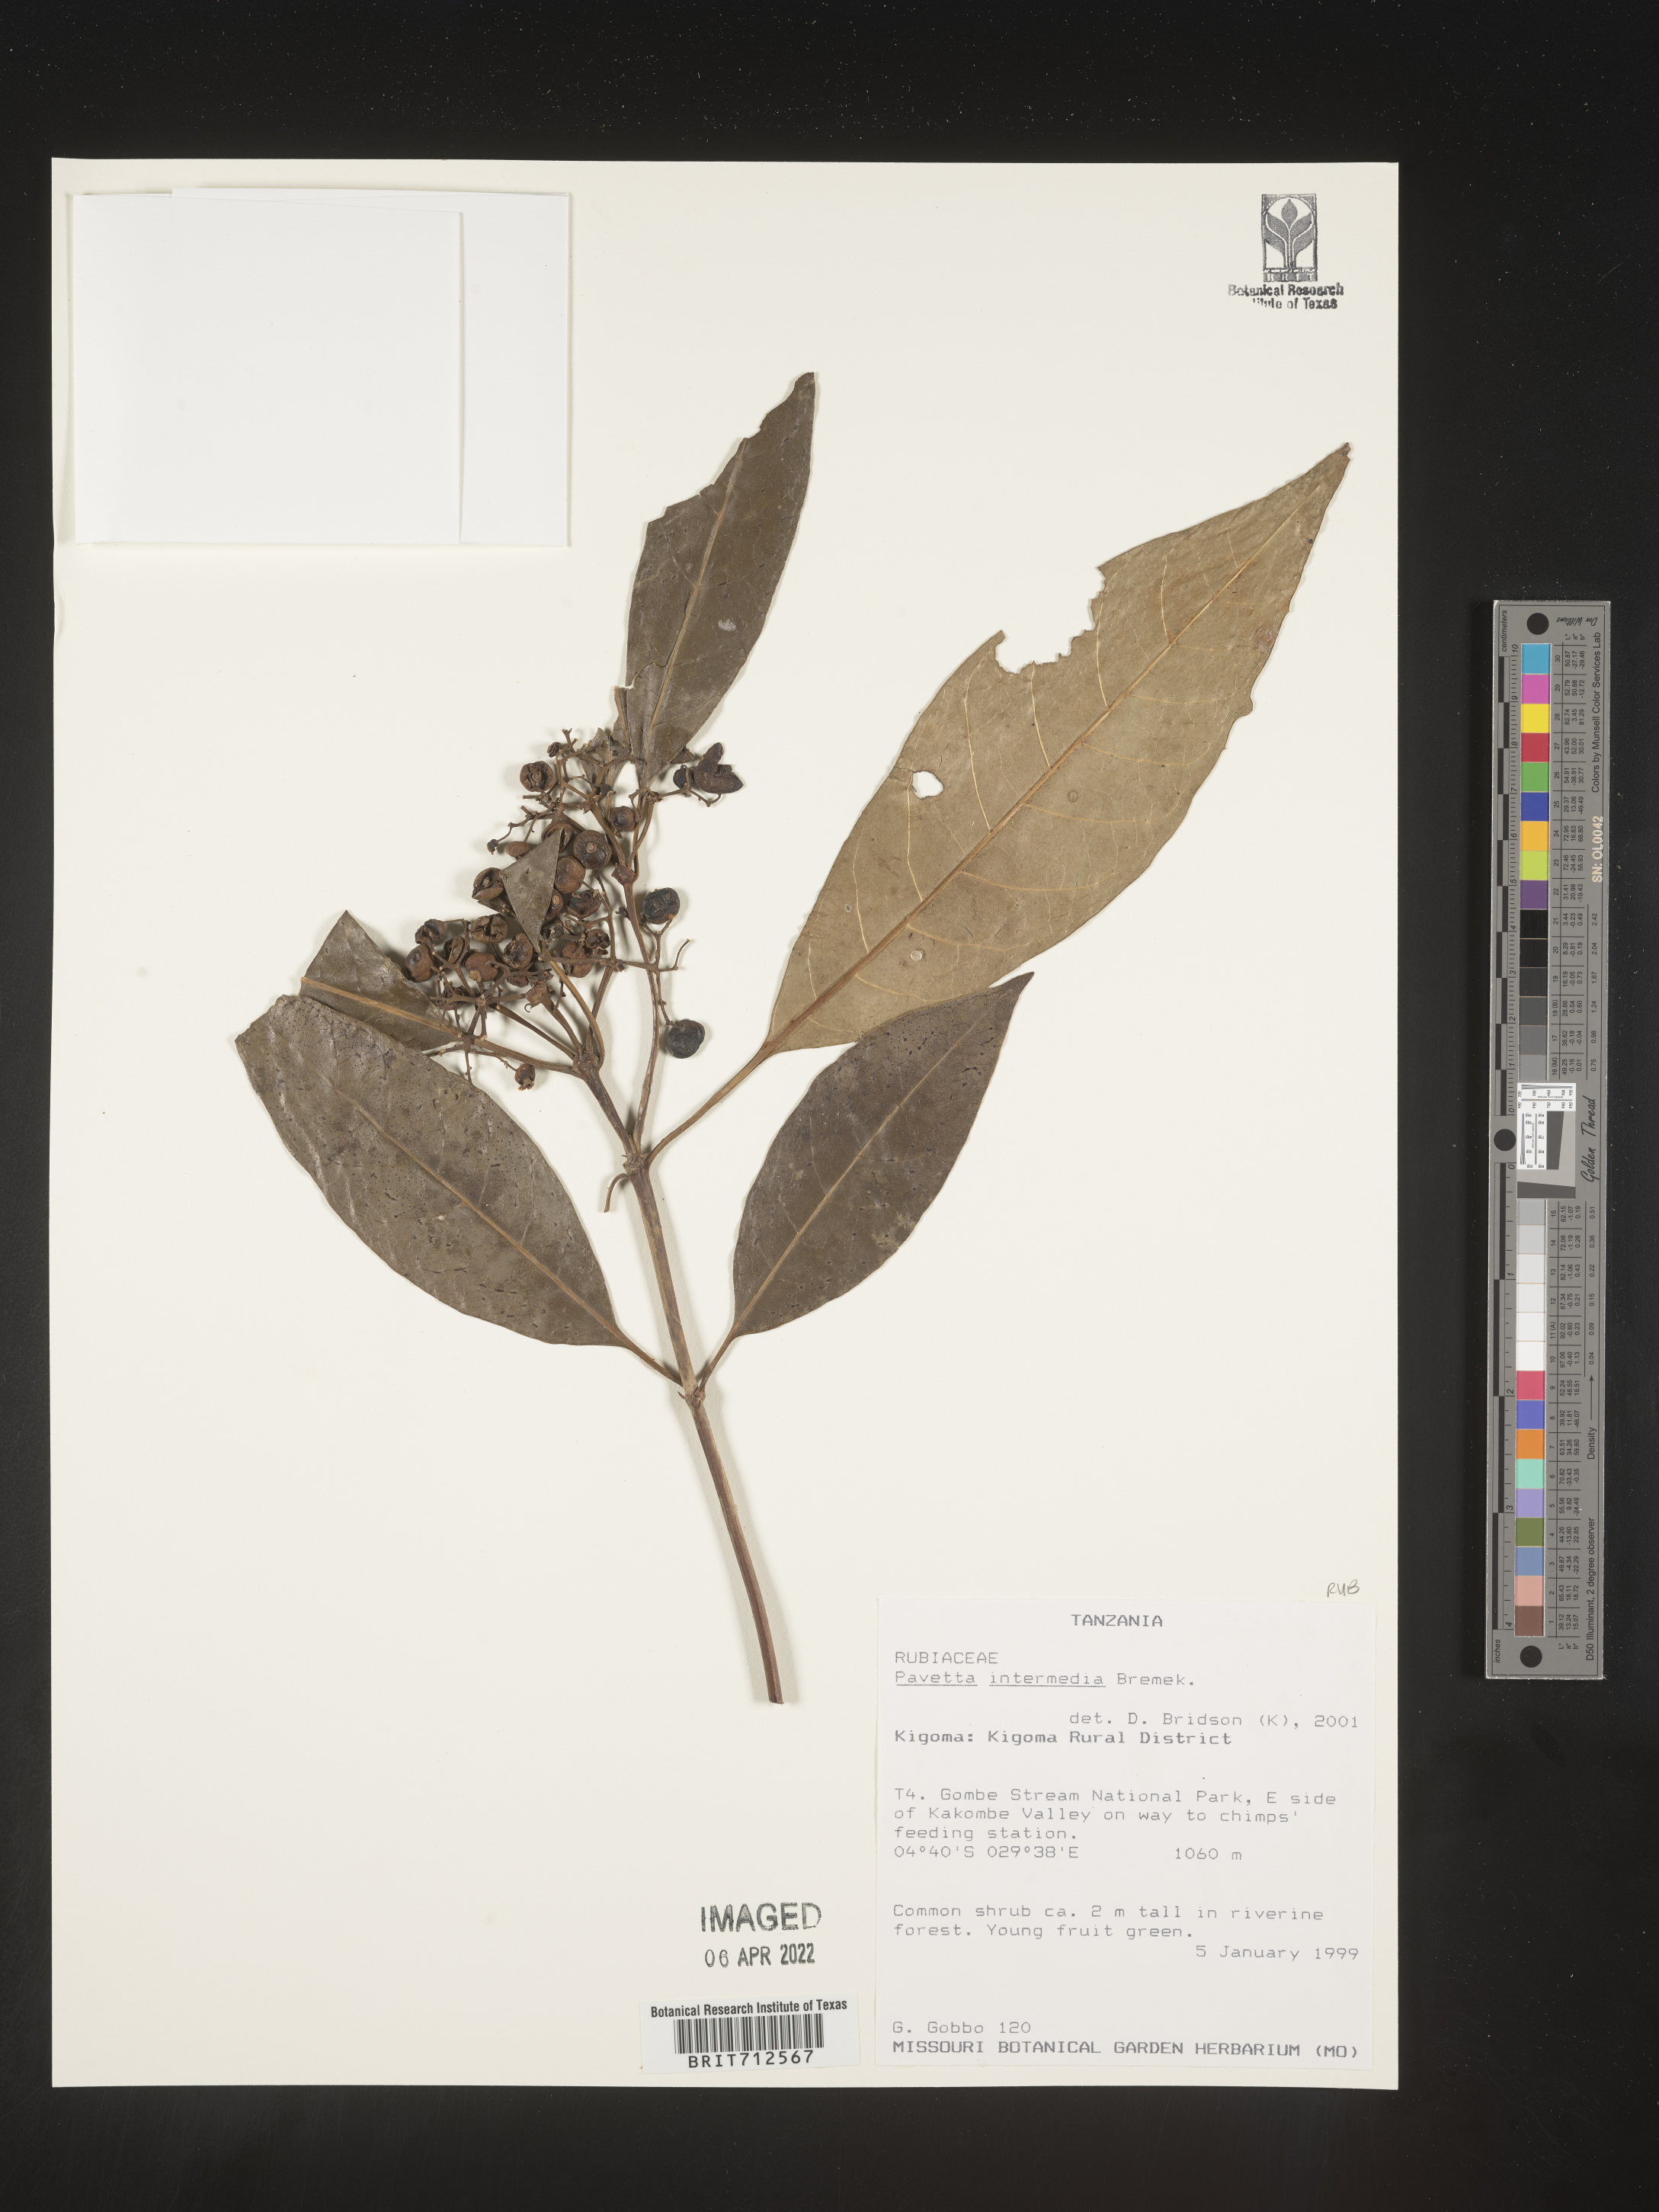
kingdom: Plantae
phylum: Tracheophyta
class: Magnoliopsida
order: Gentianales
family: Rubiaceae
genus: Pavetta
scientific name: Pavetta
